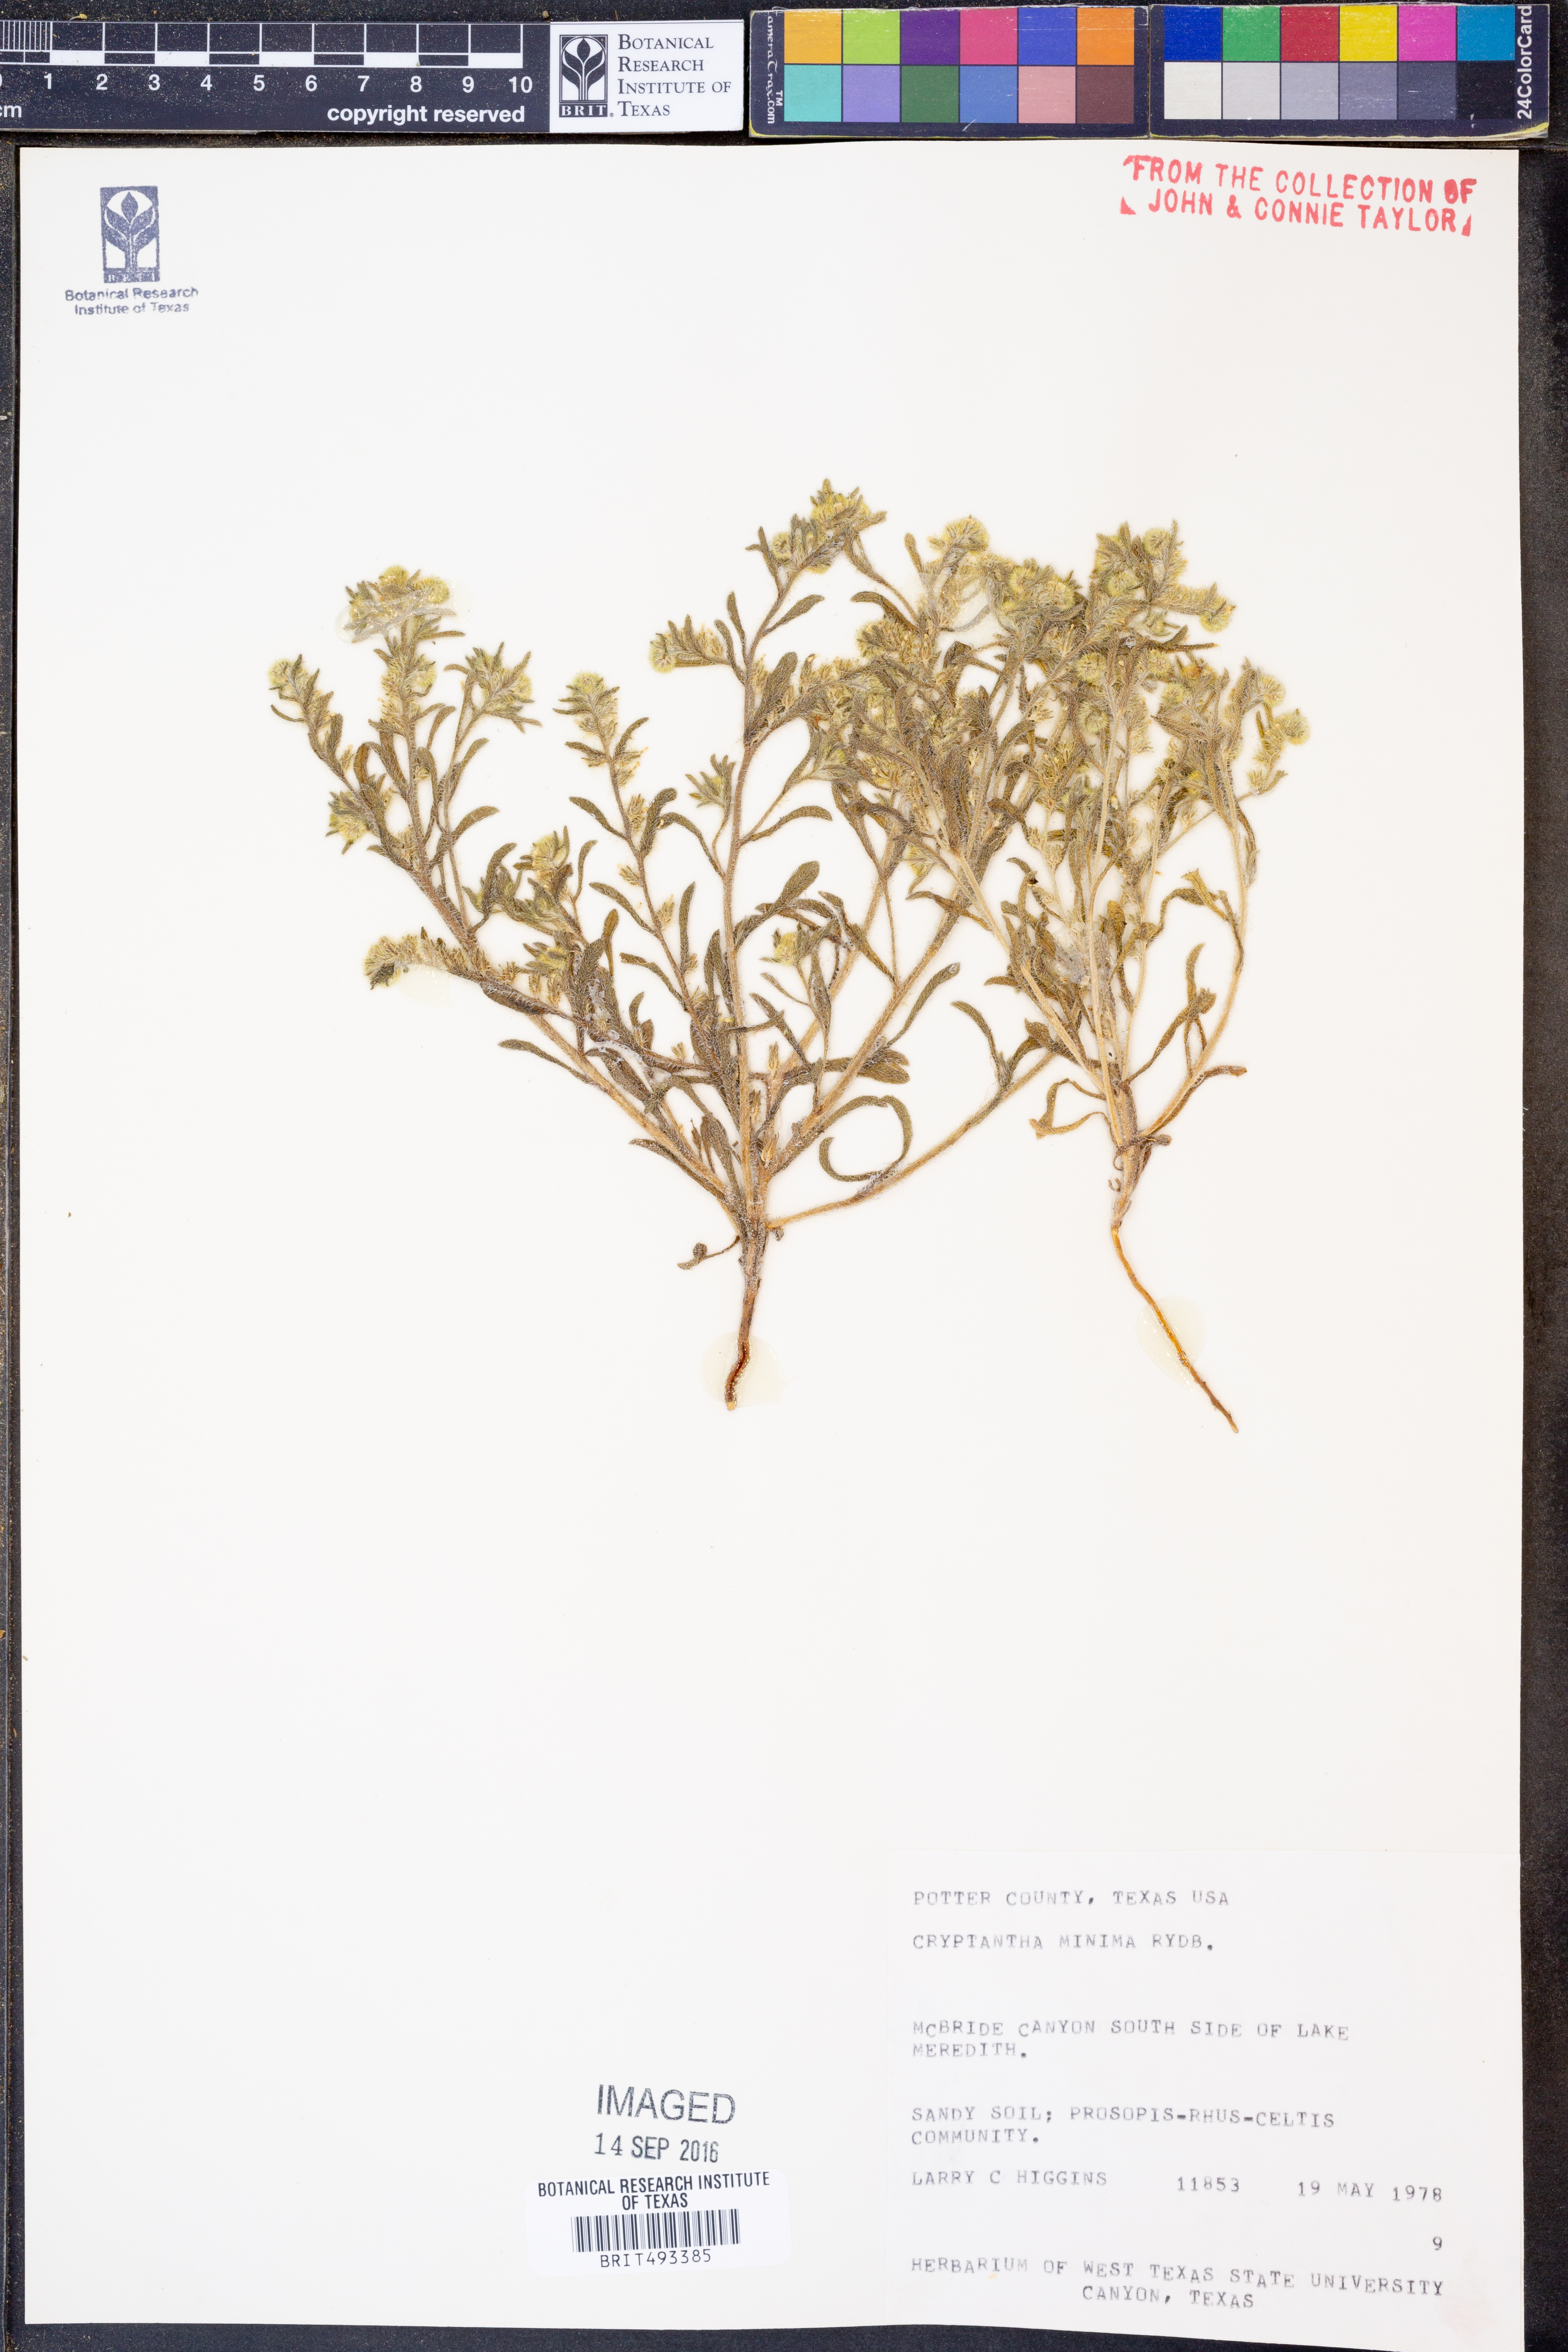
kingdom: Plantae
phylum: Tracheophyta
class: Magnoliopsida
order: Boraginales
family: Boraginaceae
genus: Cryptantha
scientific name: Cryptantha minima
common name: Little cat's-eye
